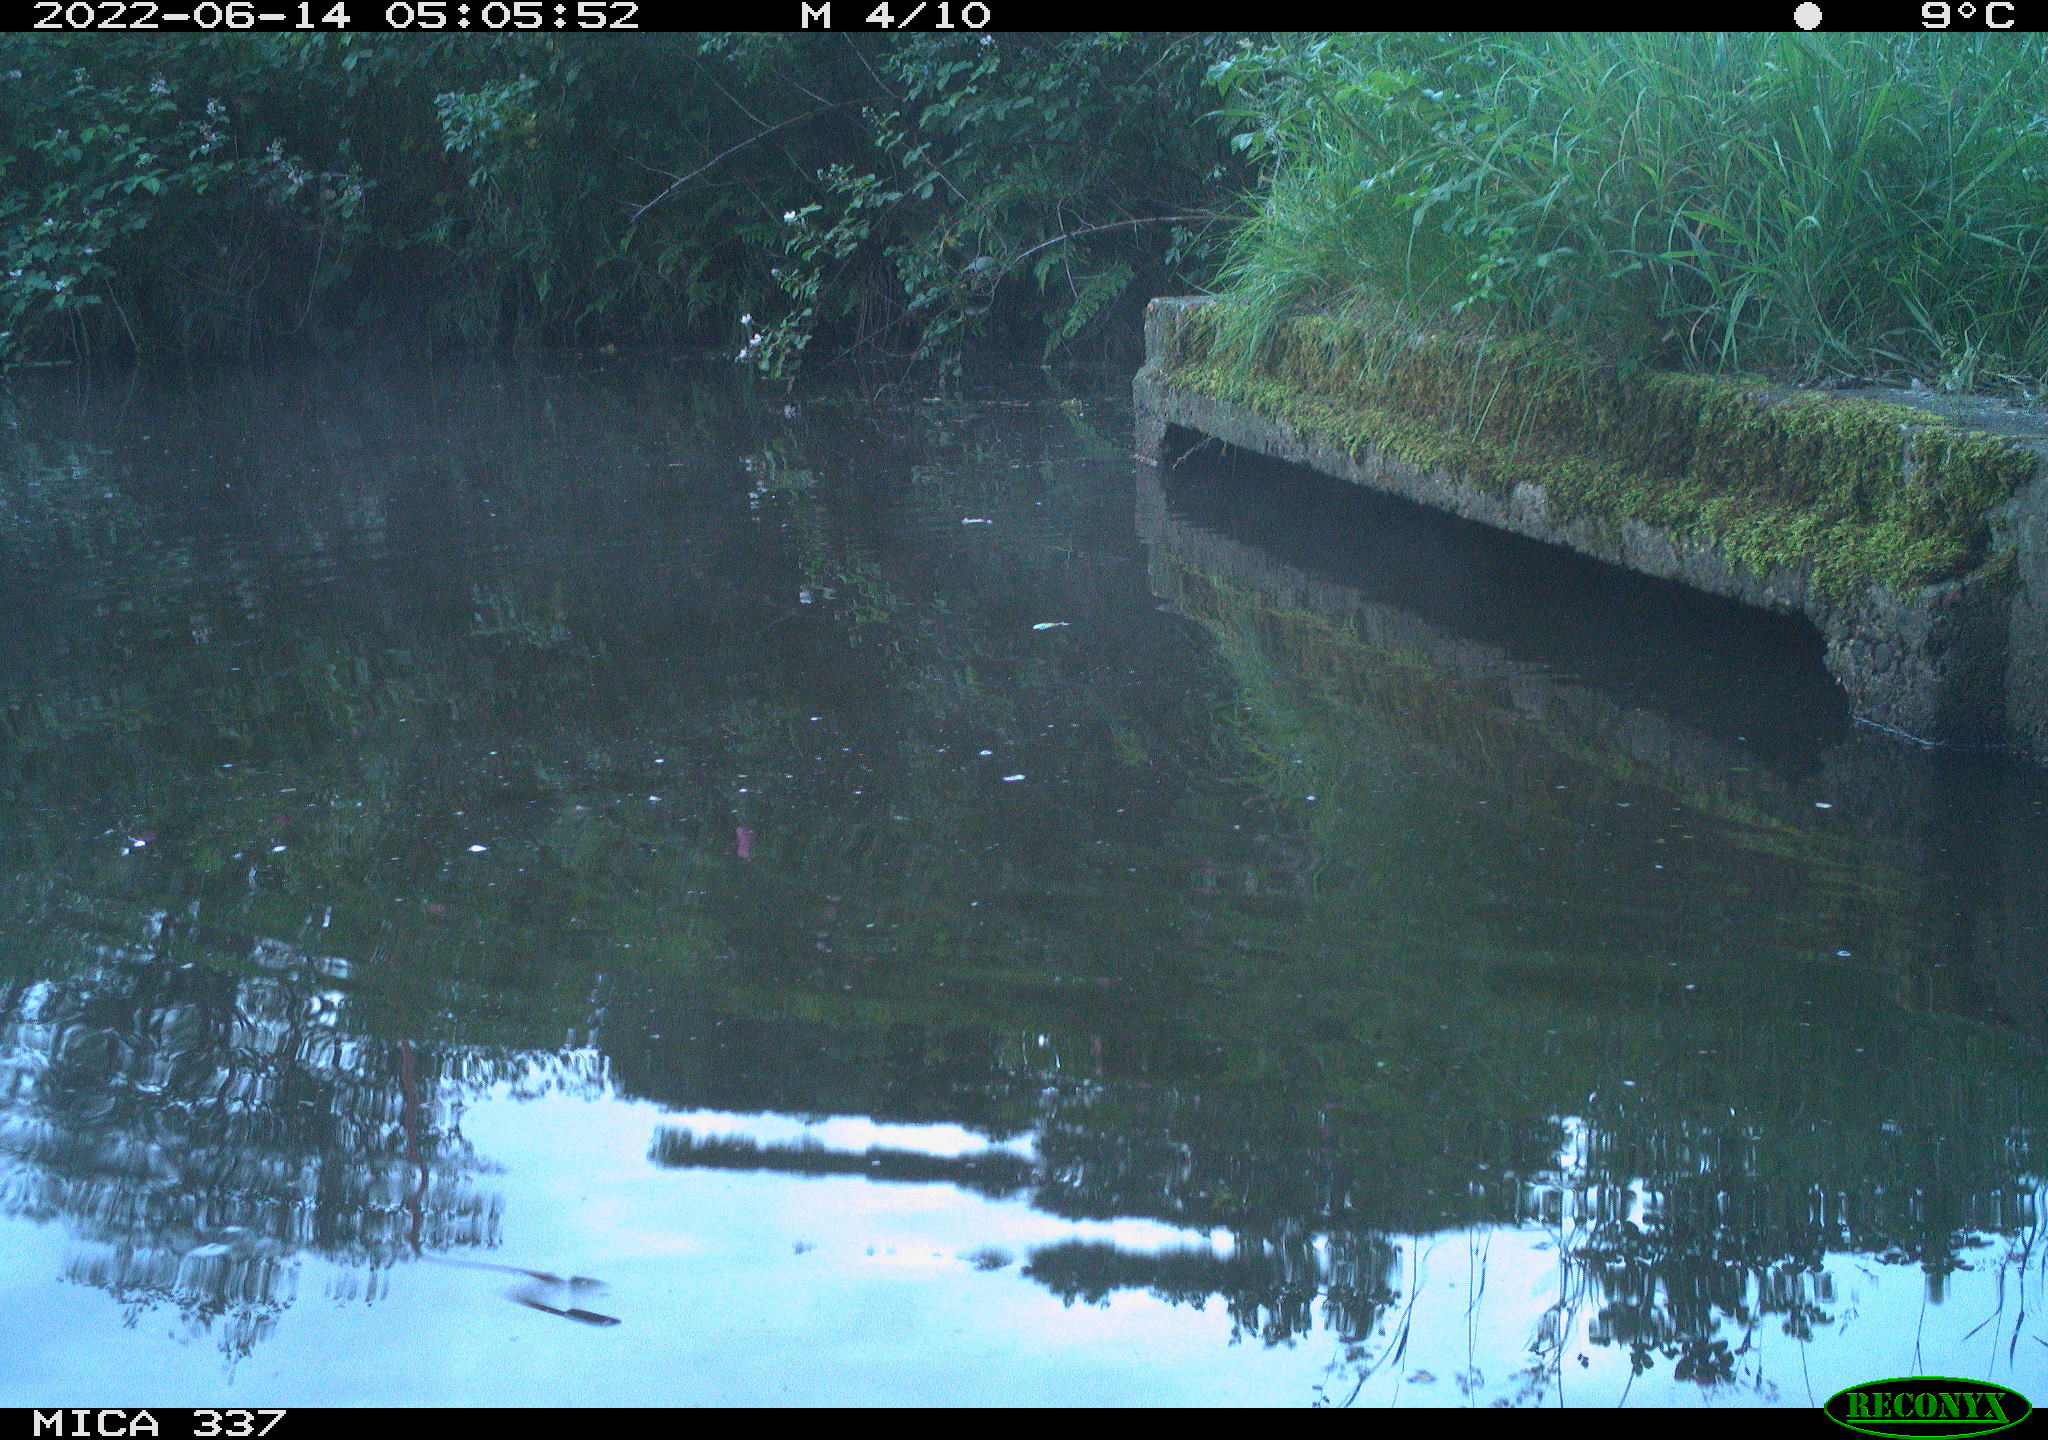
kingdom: Animalia
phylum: Chordata
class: Aves
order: Gruiformes
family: Rallidae
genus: Gallinula
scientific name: Gallinula chloropus
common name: Common moorhen
